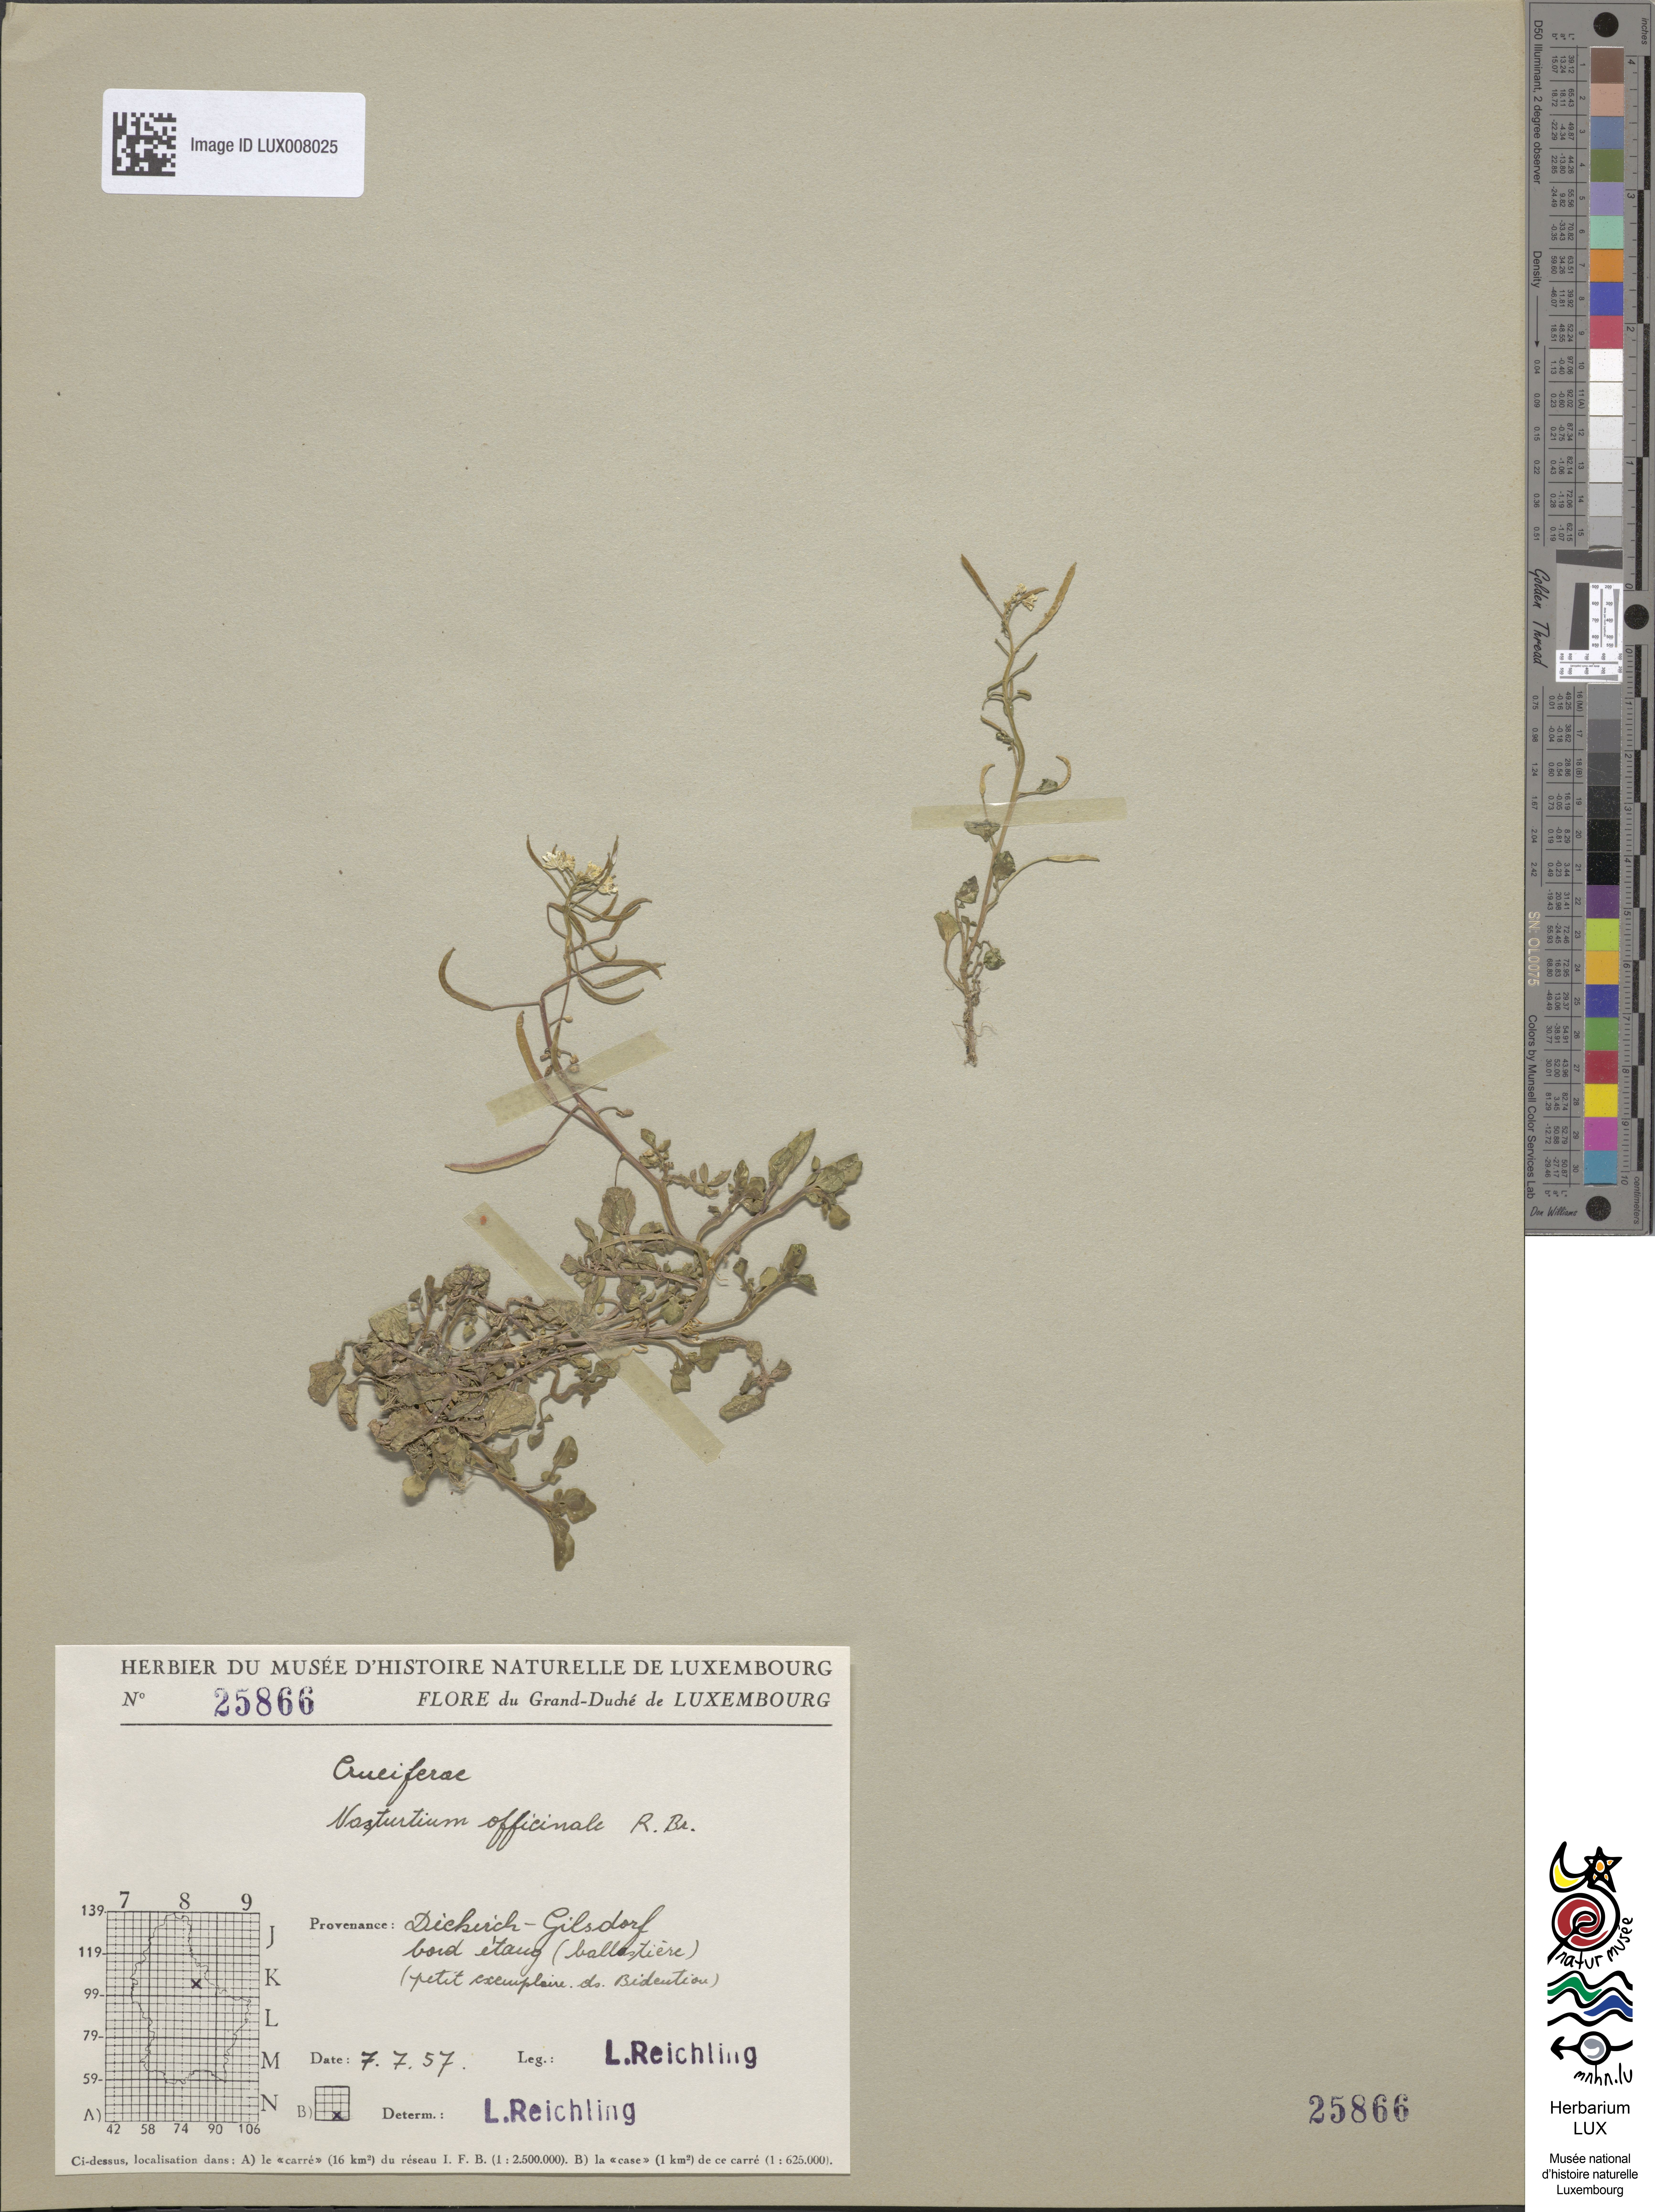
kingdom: Plantae
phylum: Tracheophyta
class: Magnoliopsida
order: Brassicales
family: Brassicaceae
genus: Nasturtium
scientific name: Nasturtium officinale
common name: Watercress
